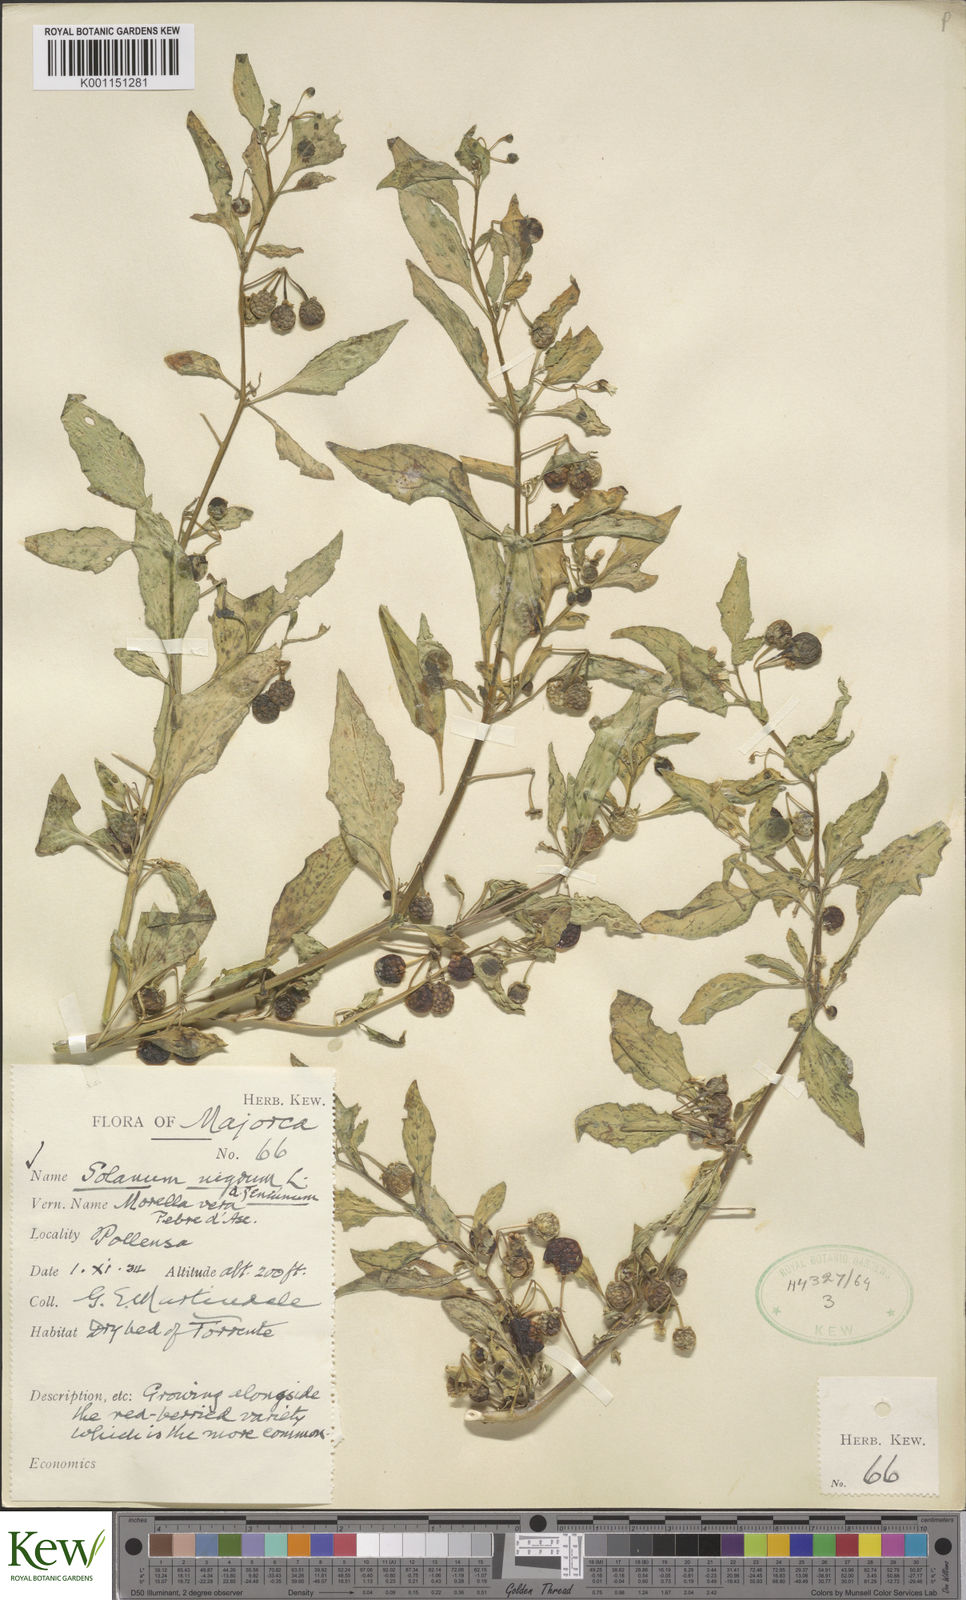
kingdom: Plantae
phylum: Tracheophyta
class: Magnoliopsida
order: Solanales
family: Solanaceae
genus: Solanum
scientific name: Solanum nigrum
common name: Black nightshade
